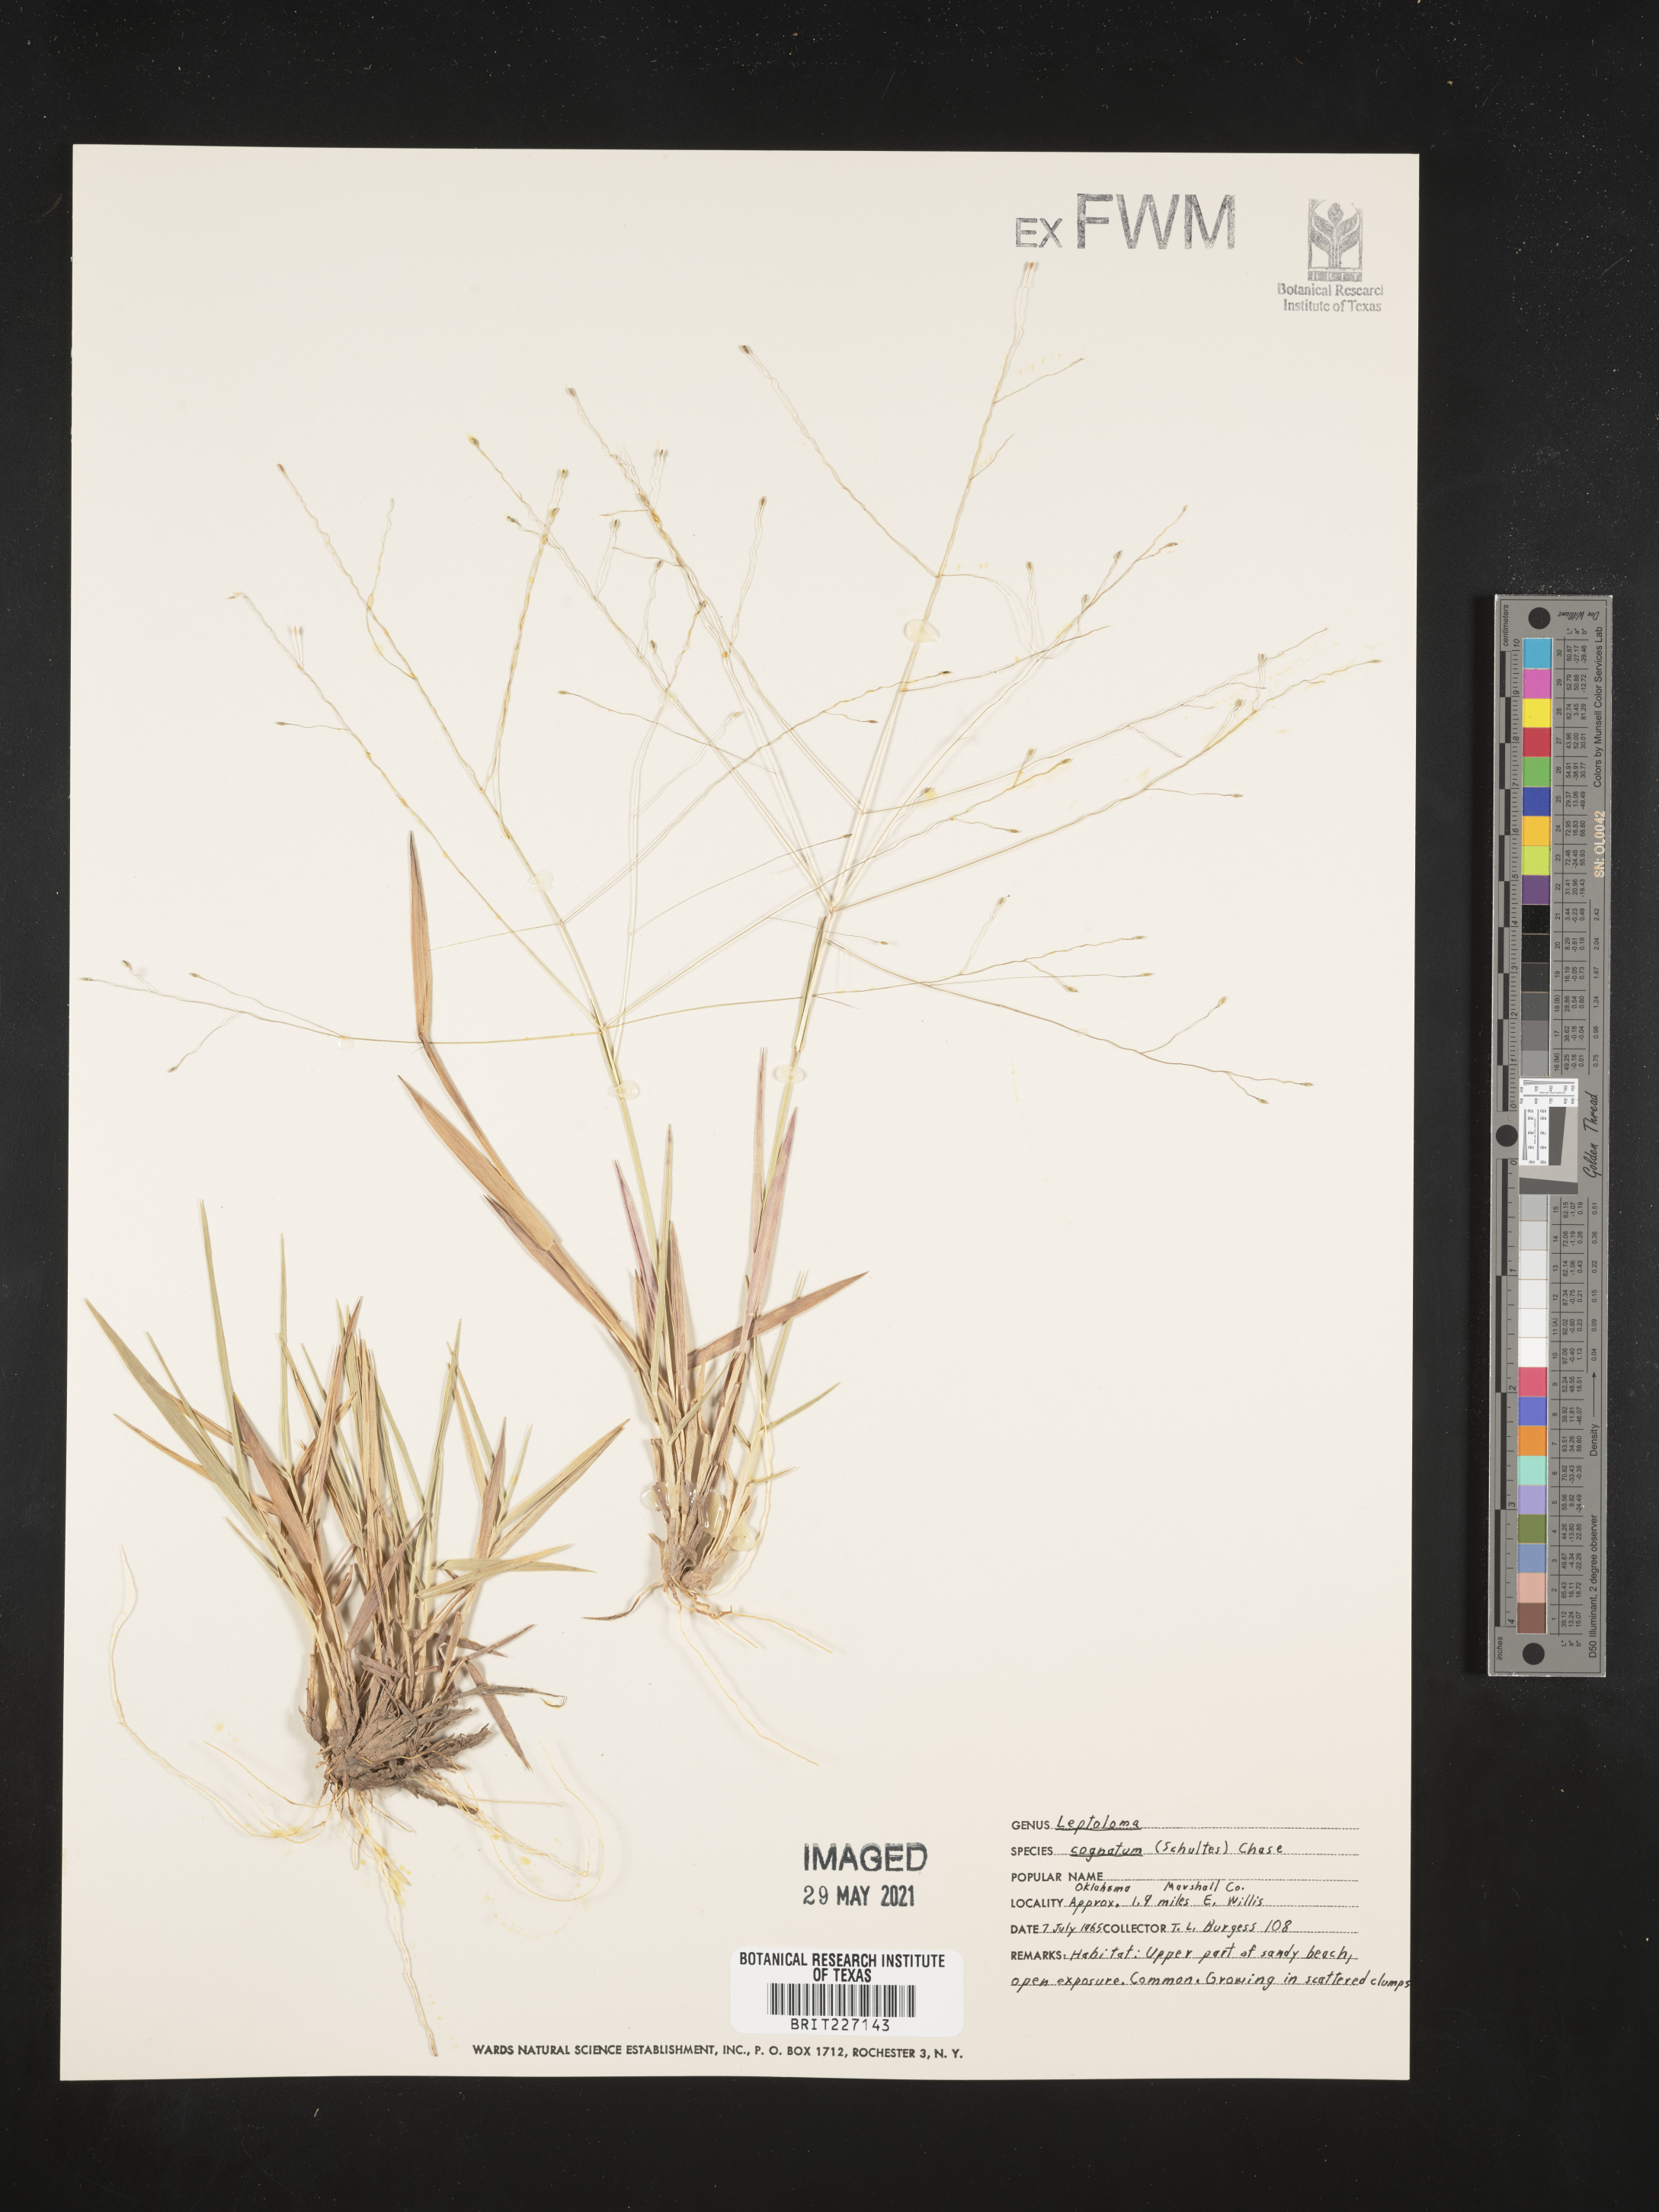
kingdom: Plantae
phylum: Tracheophyta
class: Liliopsida
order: Poales
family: Poaceae
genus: Digitaria
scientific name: Digitaria cognata
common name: Fall witchgrass
